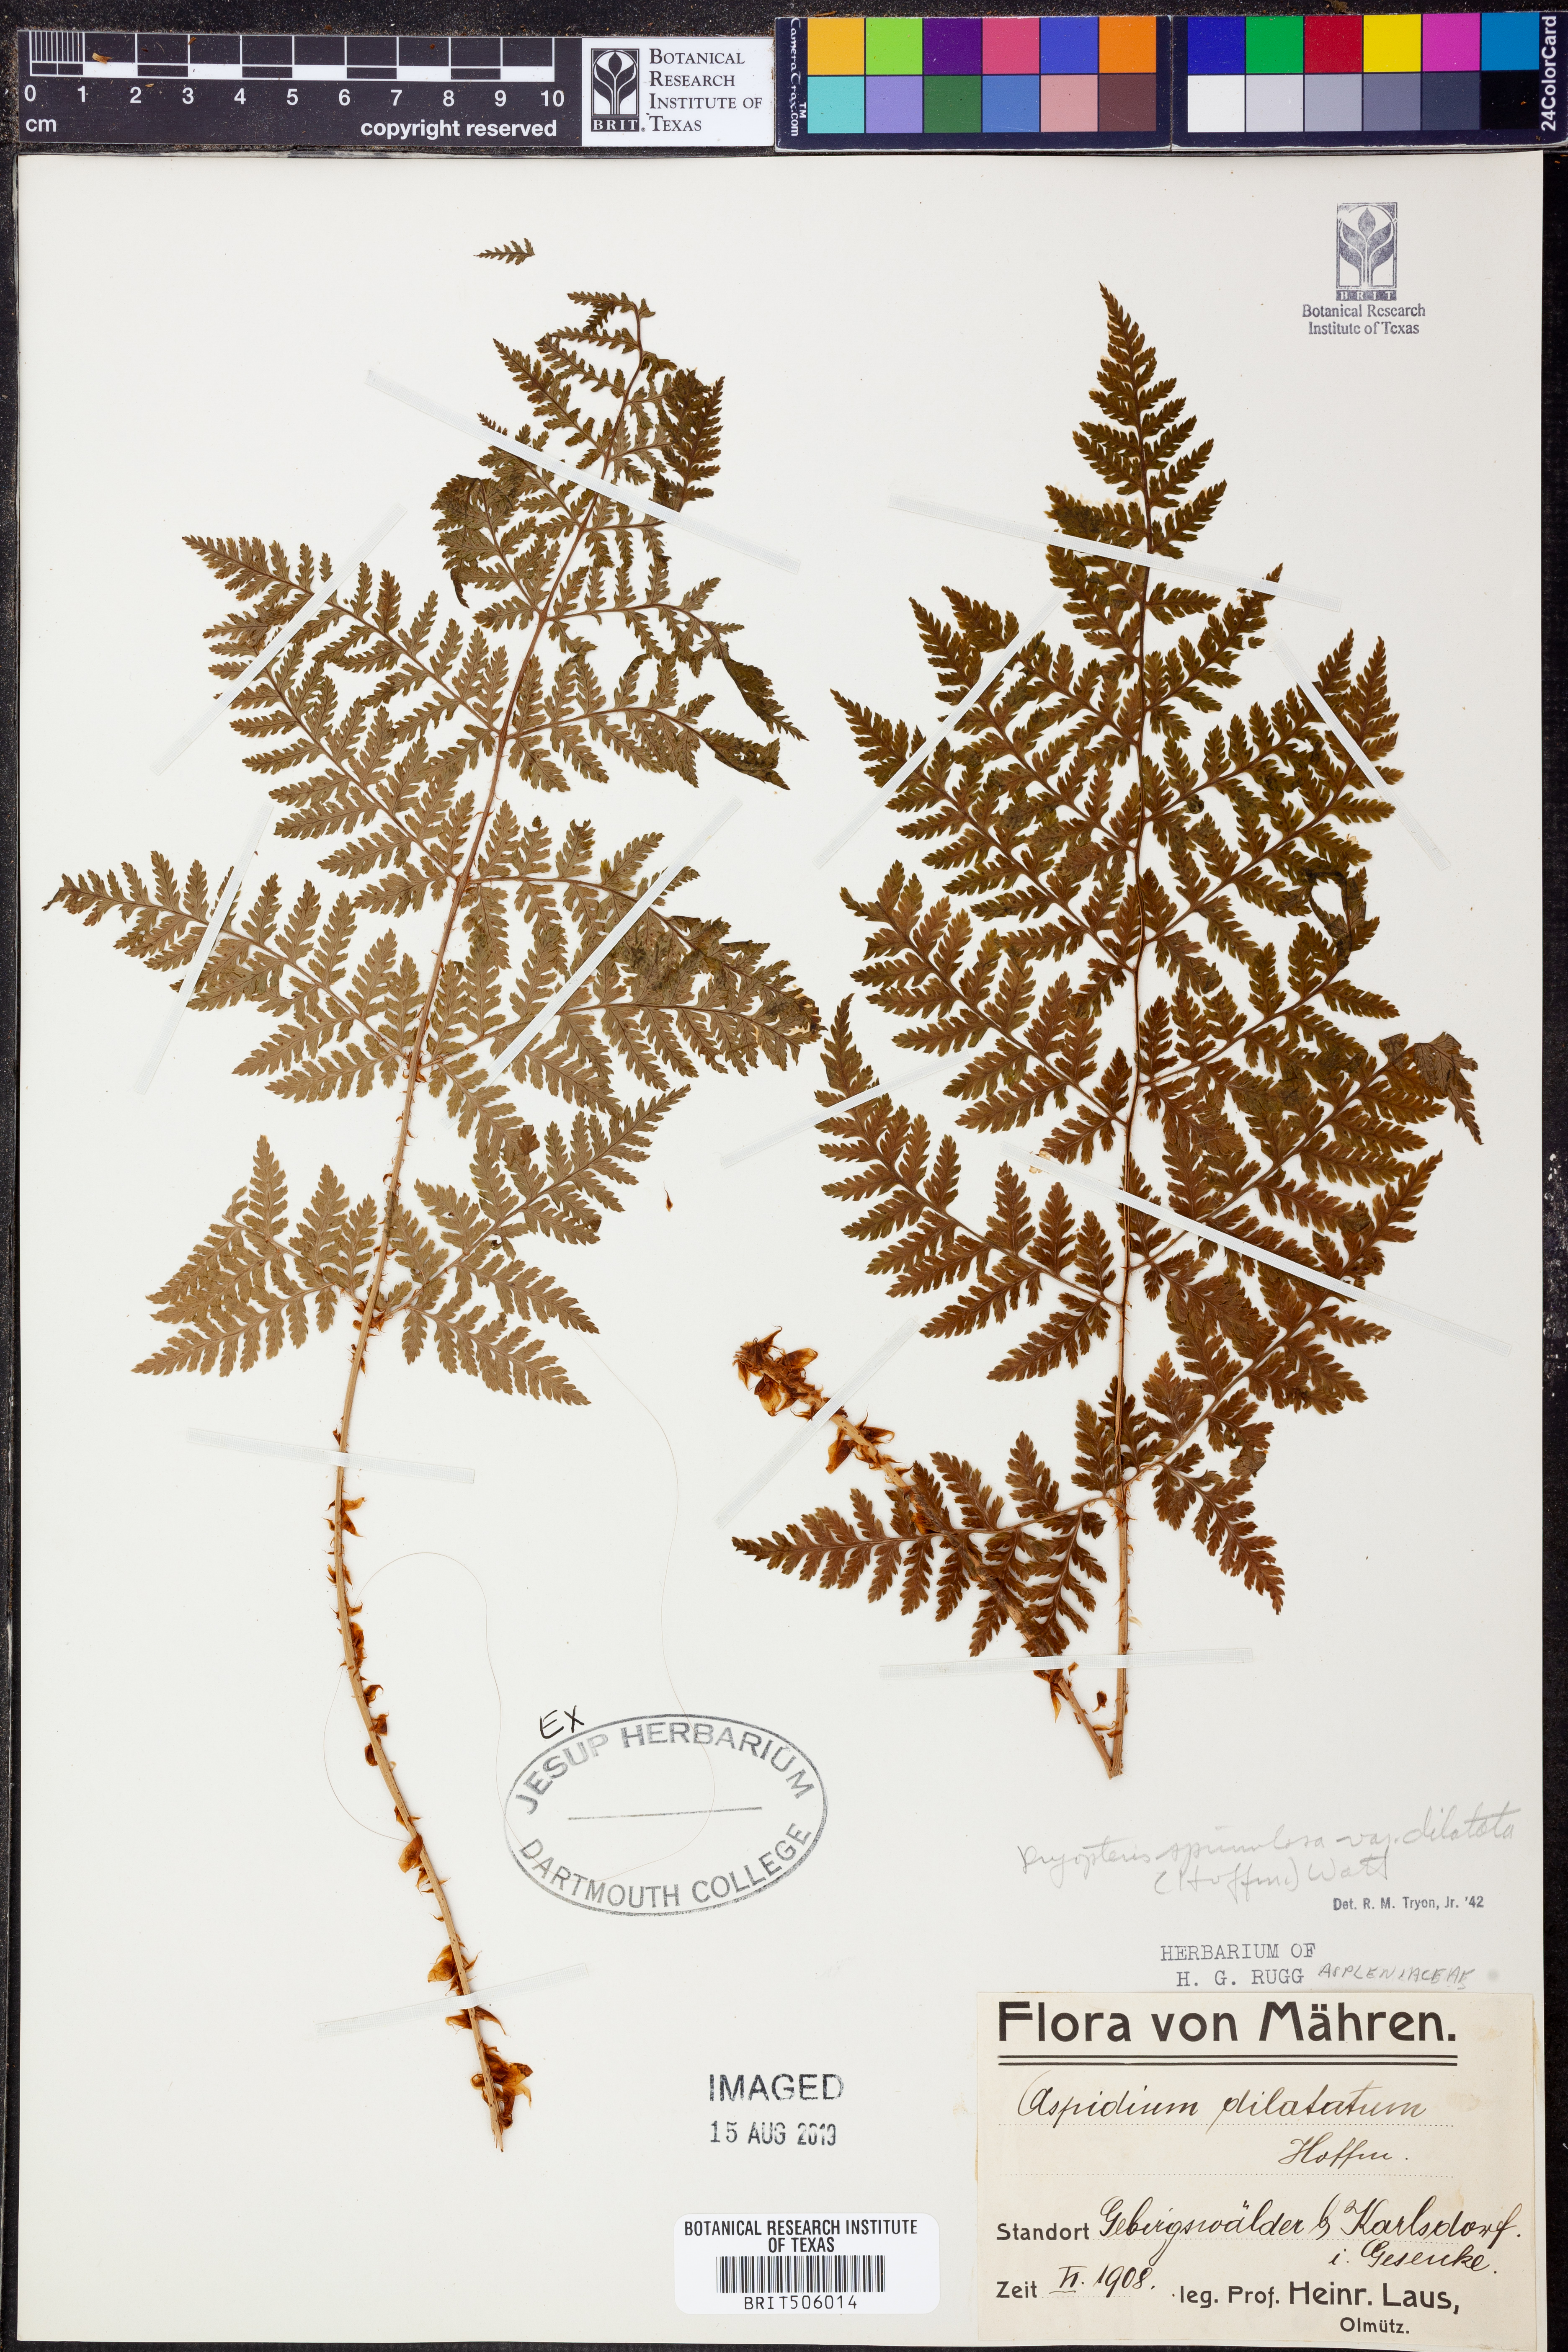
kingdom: Plantae
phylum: Tracheophyta
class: Polypodiopsida
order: Polypodiales
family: Dryopteridaceae
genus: Dryopteris
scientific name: Dryopteris dilatata
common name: Broad buckler-fern
